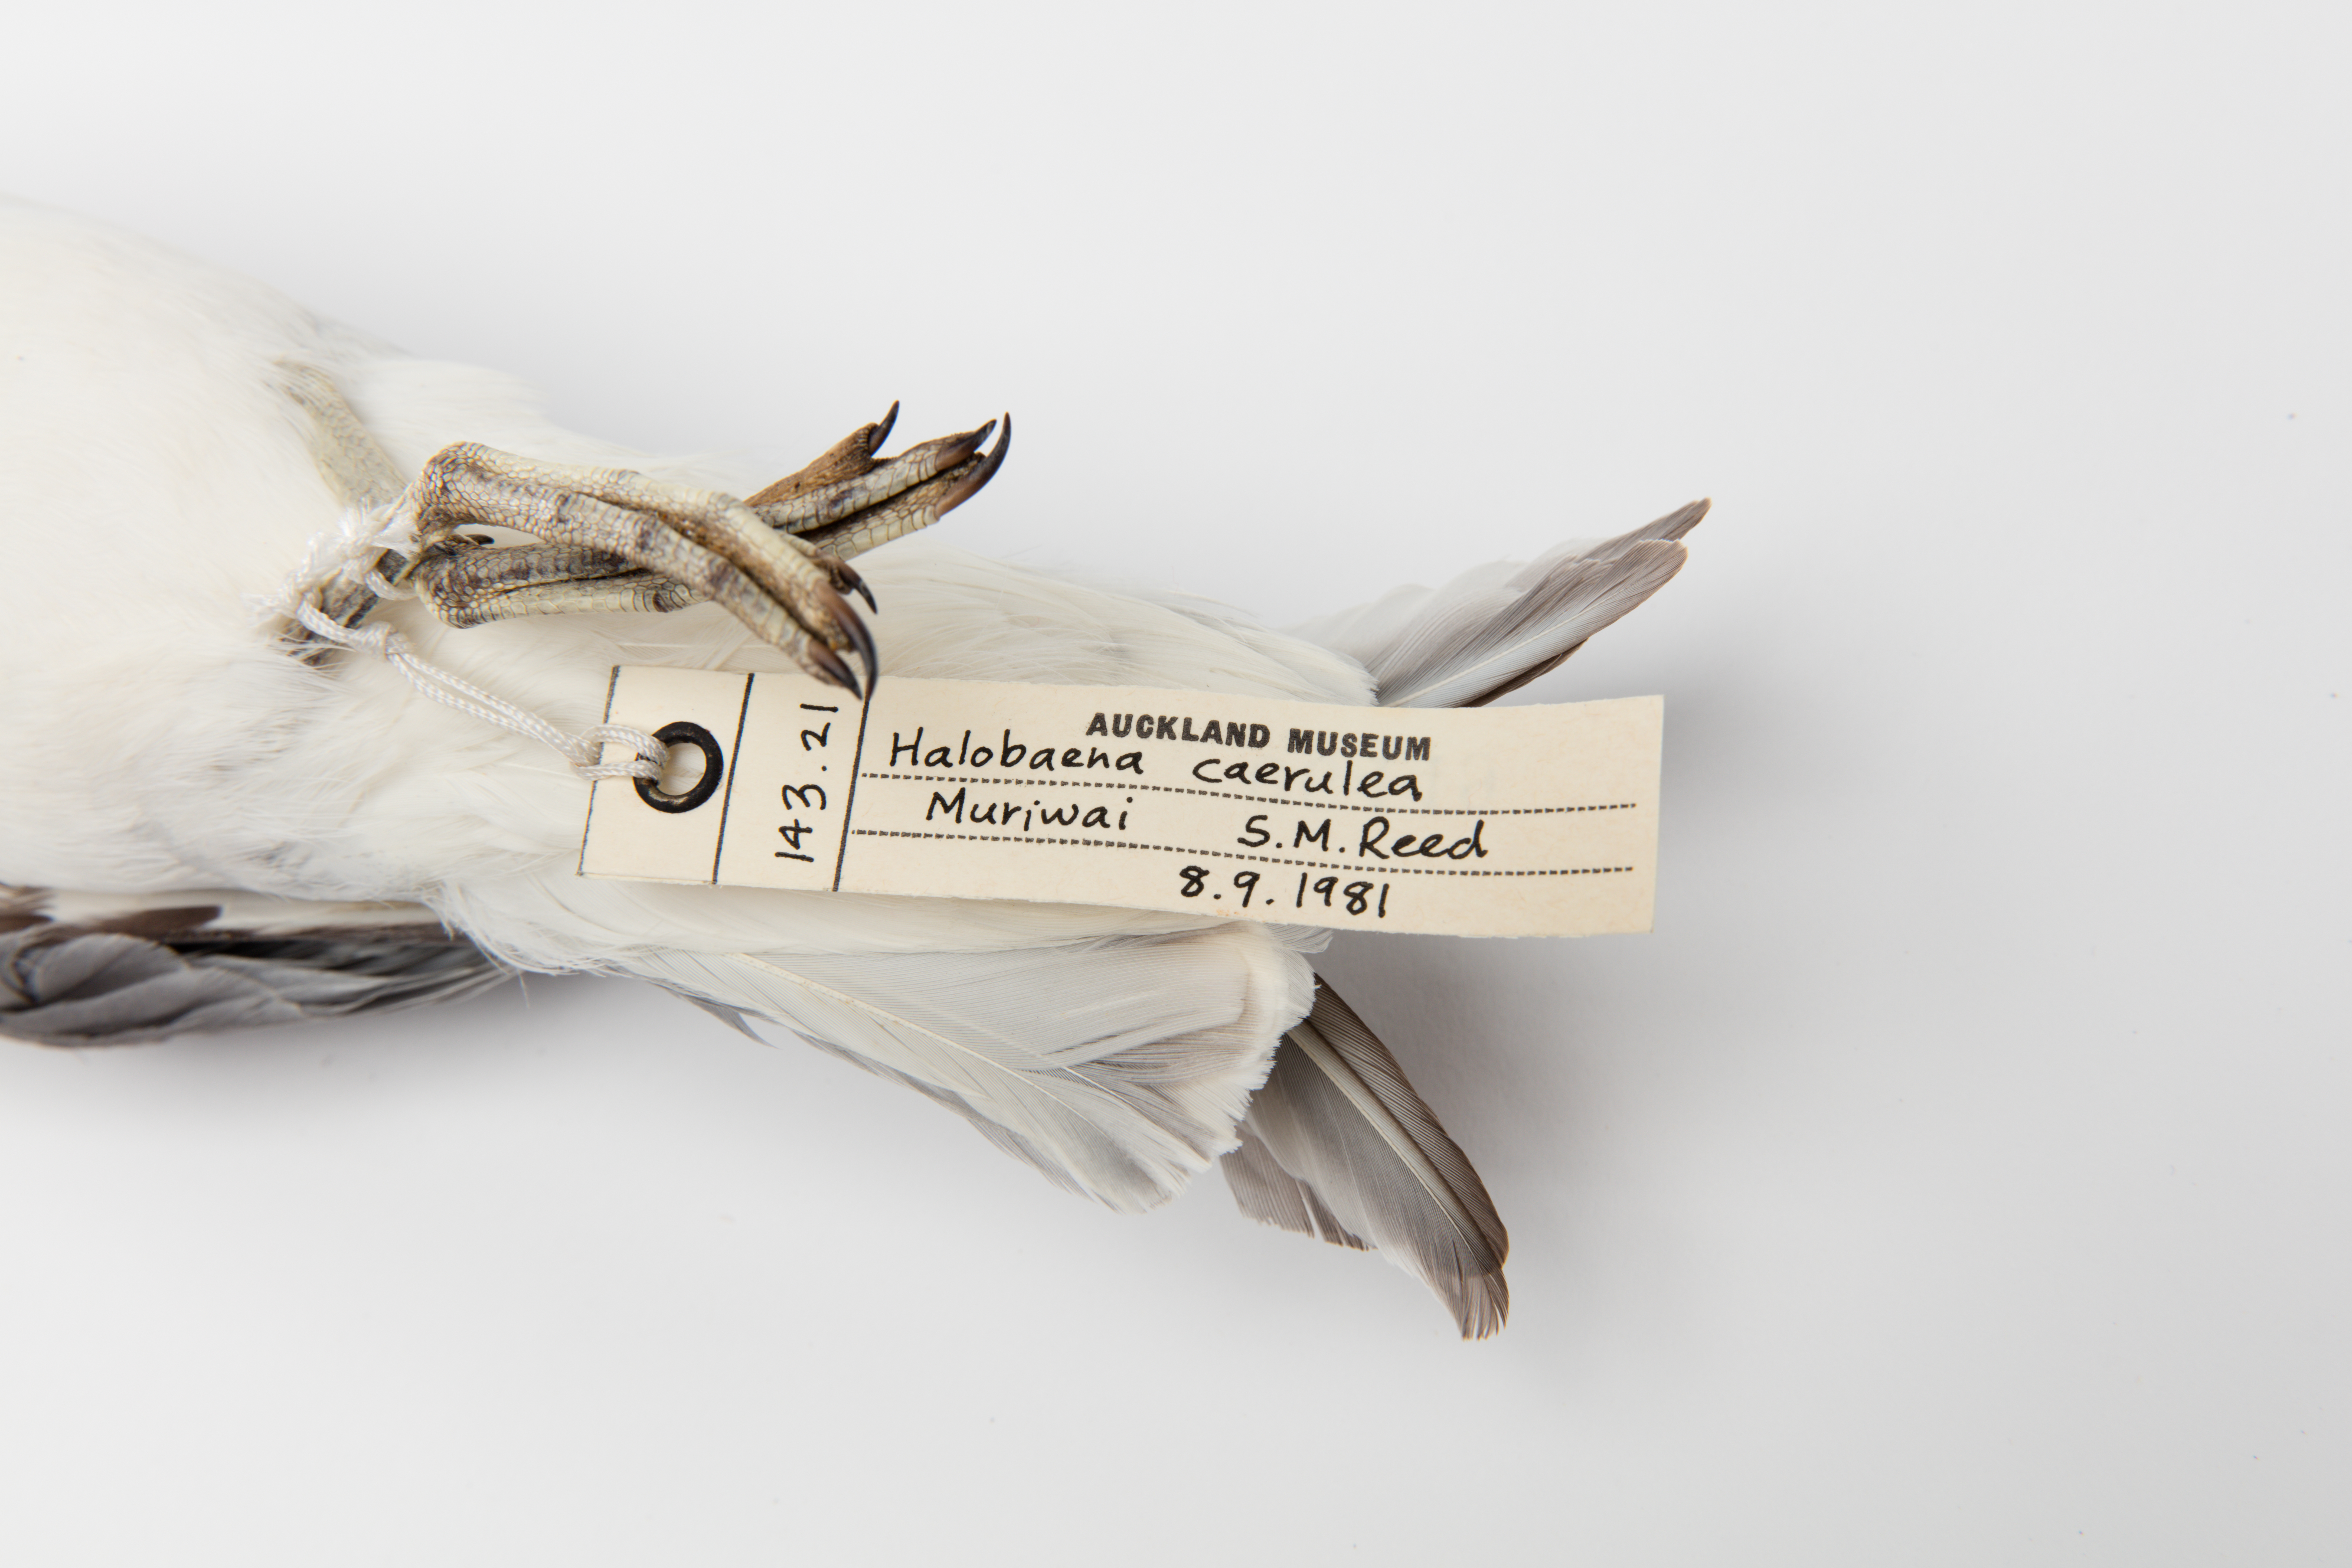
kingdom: Animalia
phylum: Chordata
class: Aves
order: Procellariiformes
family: Procellariidae
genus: Halobaena
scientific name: Halobaena caerulea
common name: Blue petrel
